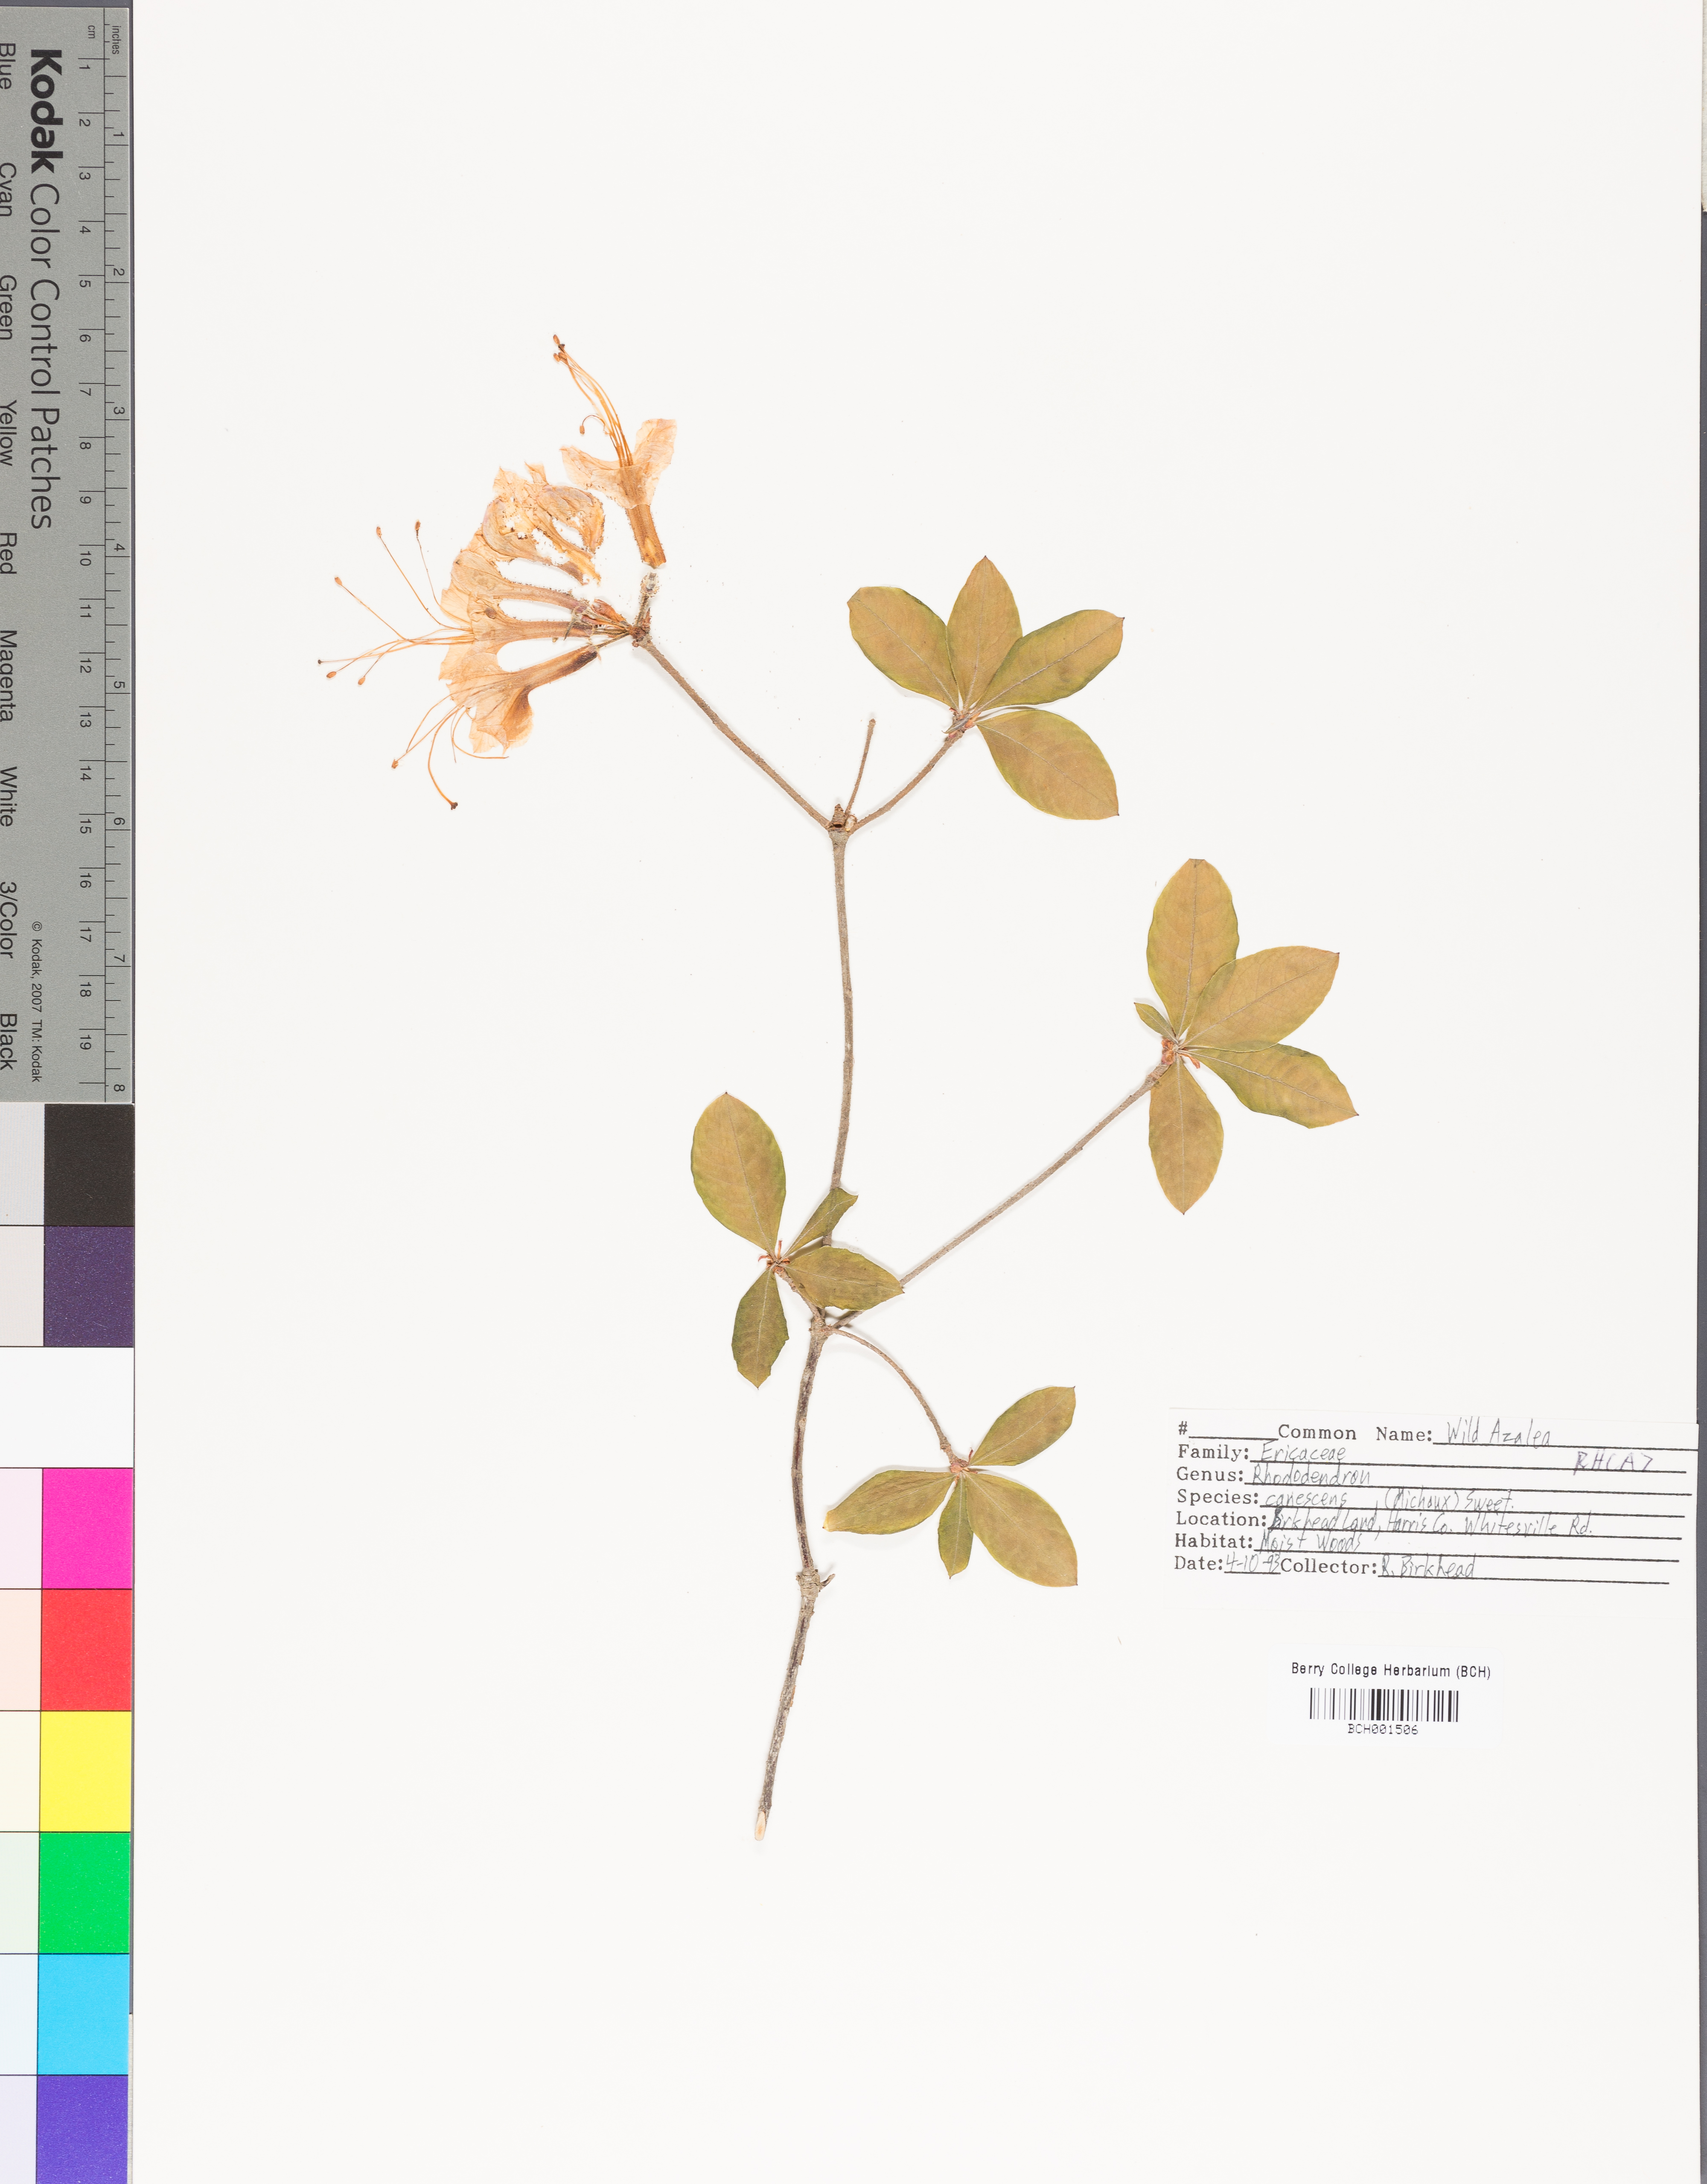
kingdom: Plantae
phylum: Tracheophyta
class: Magnoliopsida
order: Ericales
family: Ericaceae
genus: Rhododendron
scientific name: Rhododendron canescens
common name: Mountain azalea
